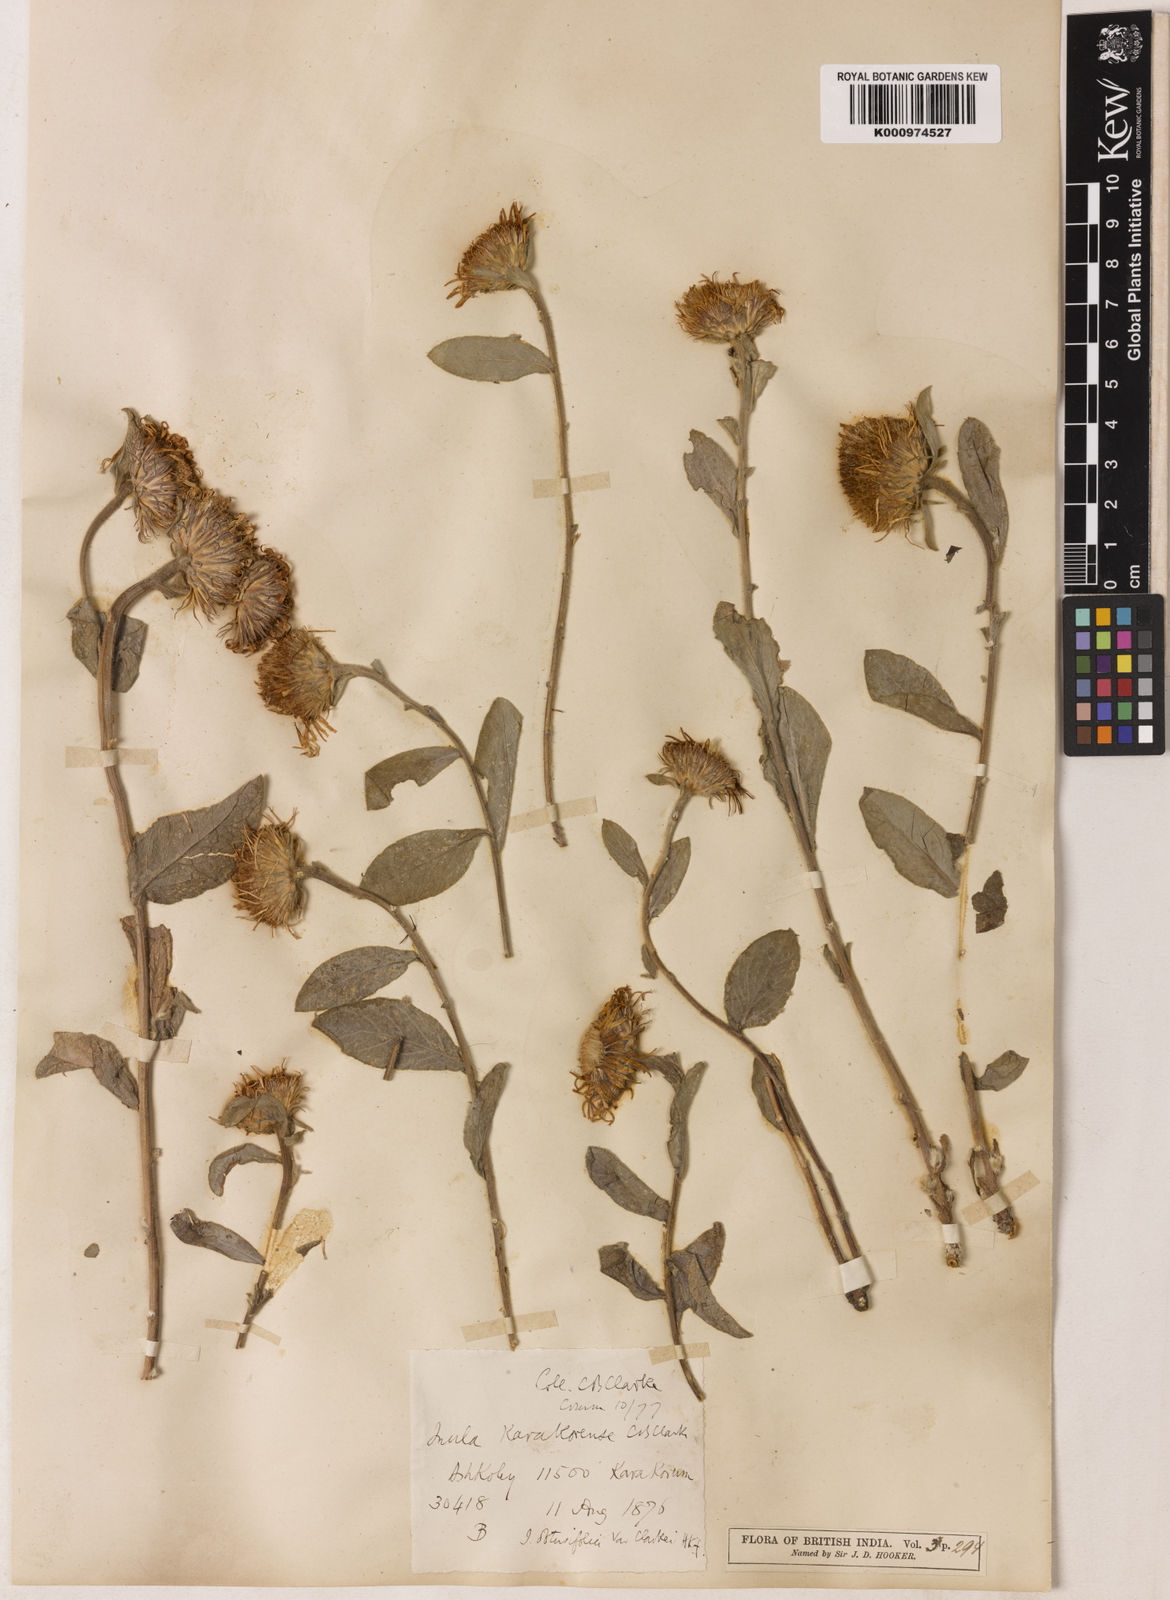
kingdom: Plantae
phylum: Tracheophyta
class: Magnoliopsida
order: Asterales
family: Asteraceae
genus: Inula
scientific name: Inula obtusifolia
